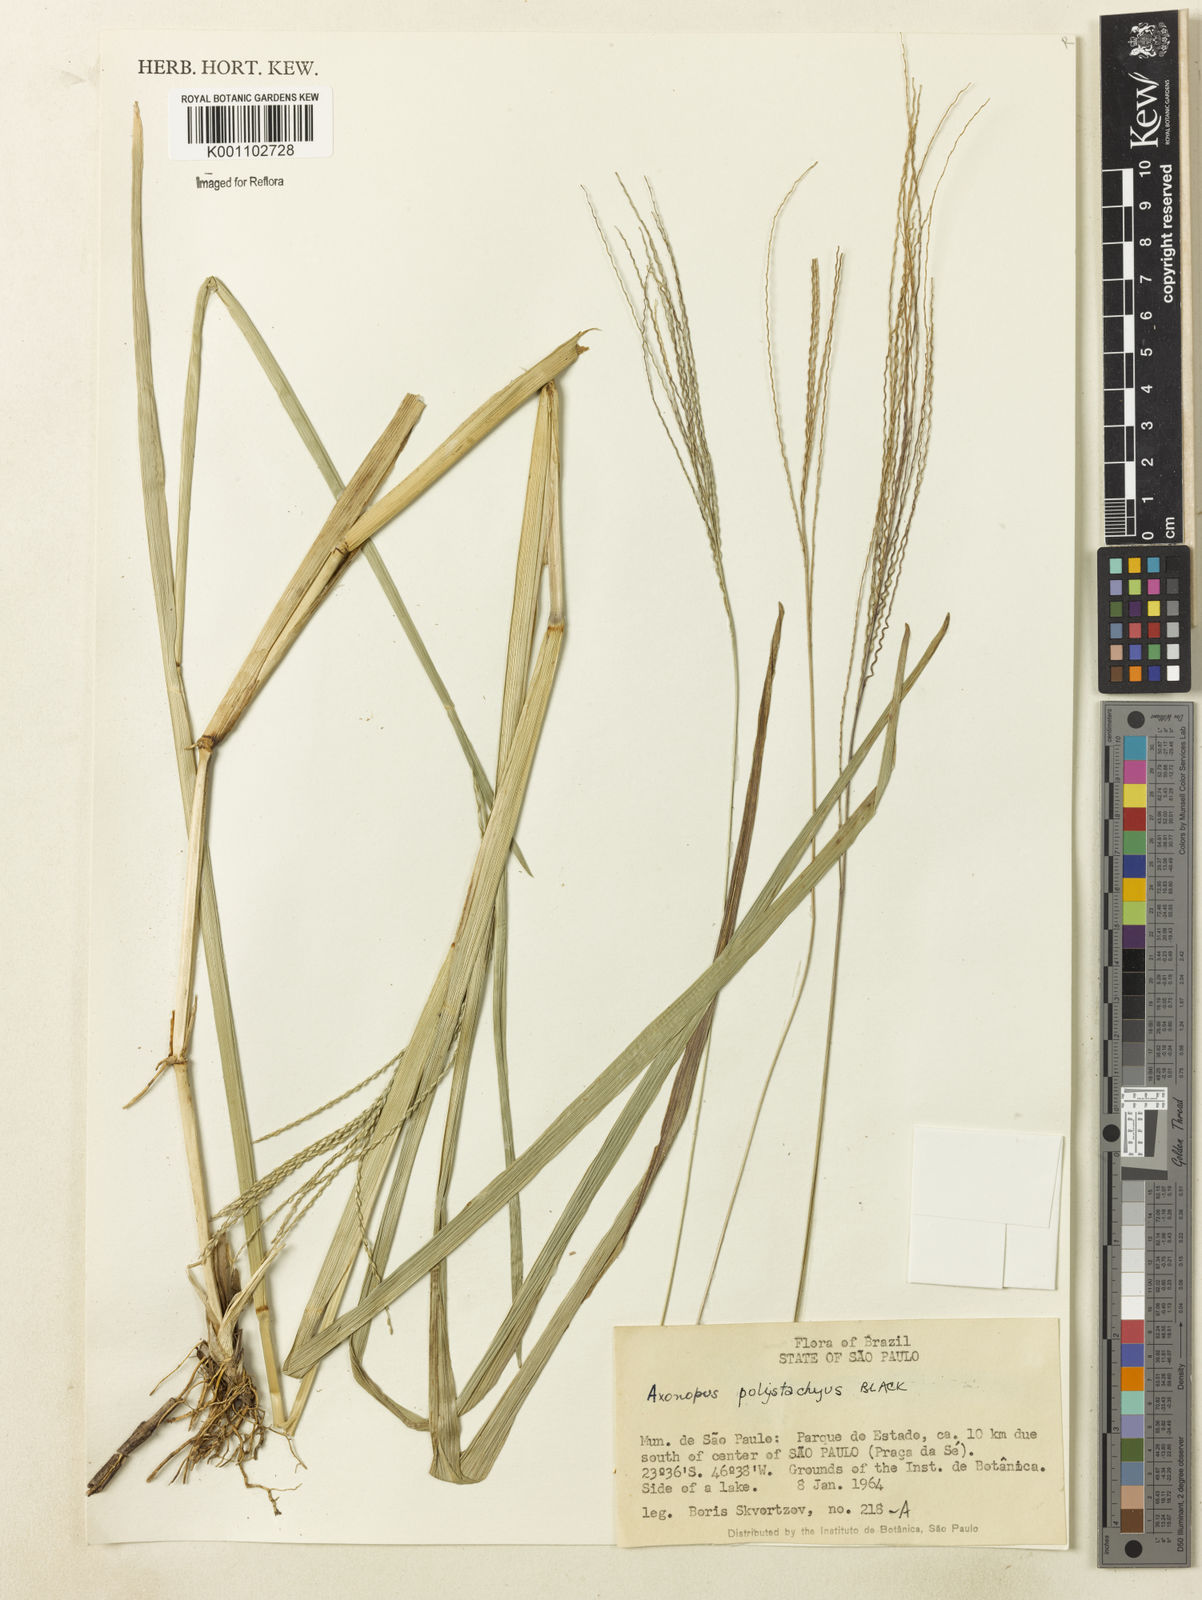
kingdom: Plantae
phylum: Tracheophyta
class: Liliopsida
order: Poales
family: Poaceae
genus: Axonopus
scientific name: Axonopus polystachyus
